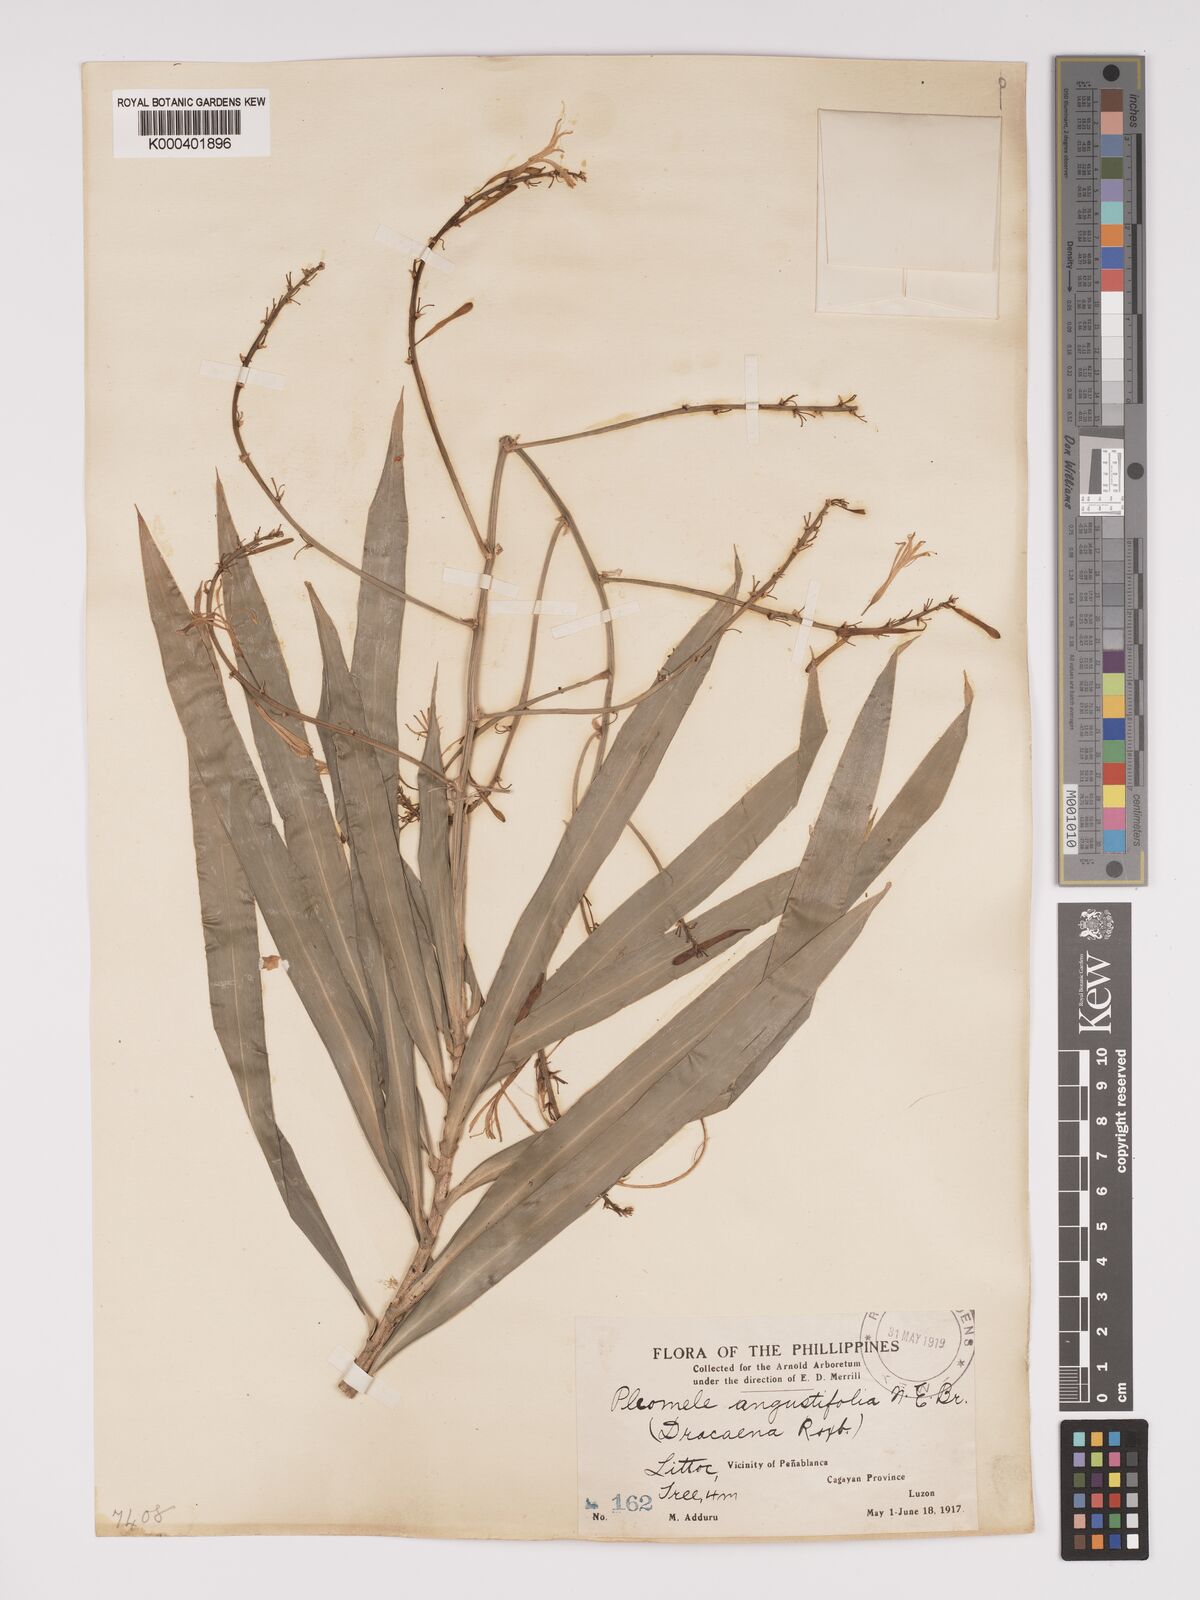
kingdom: Plantae
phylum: Tracheophyta
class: Liliopsida
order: Asparagales
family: Asparagaceae
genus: Dracaena
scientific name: Dracaena angustifolia
